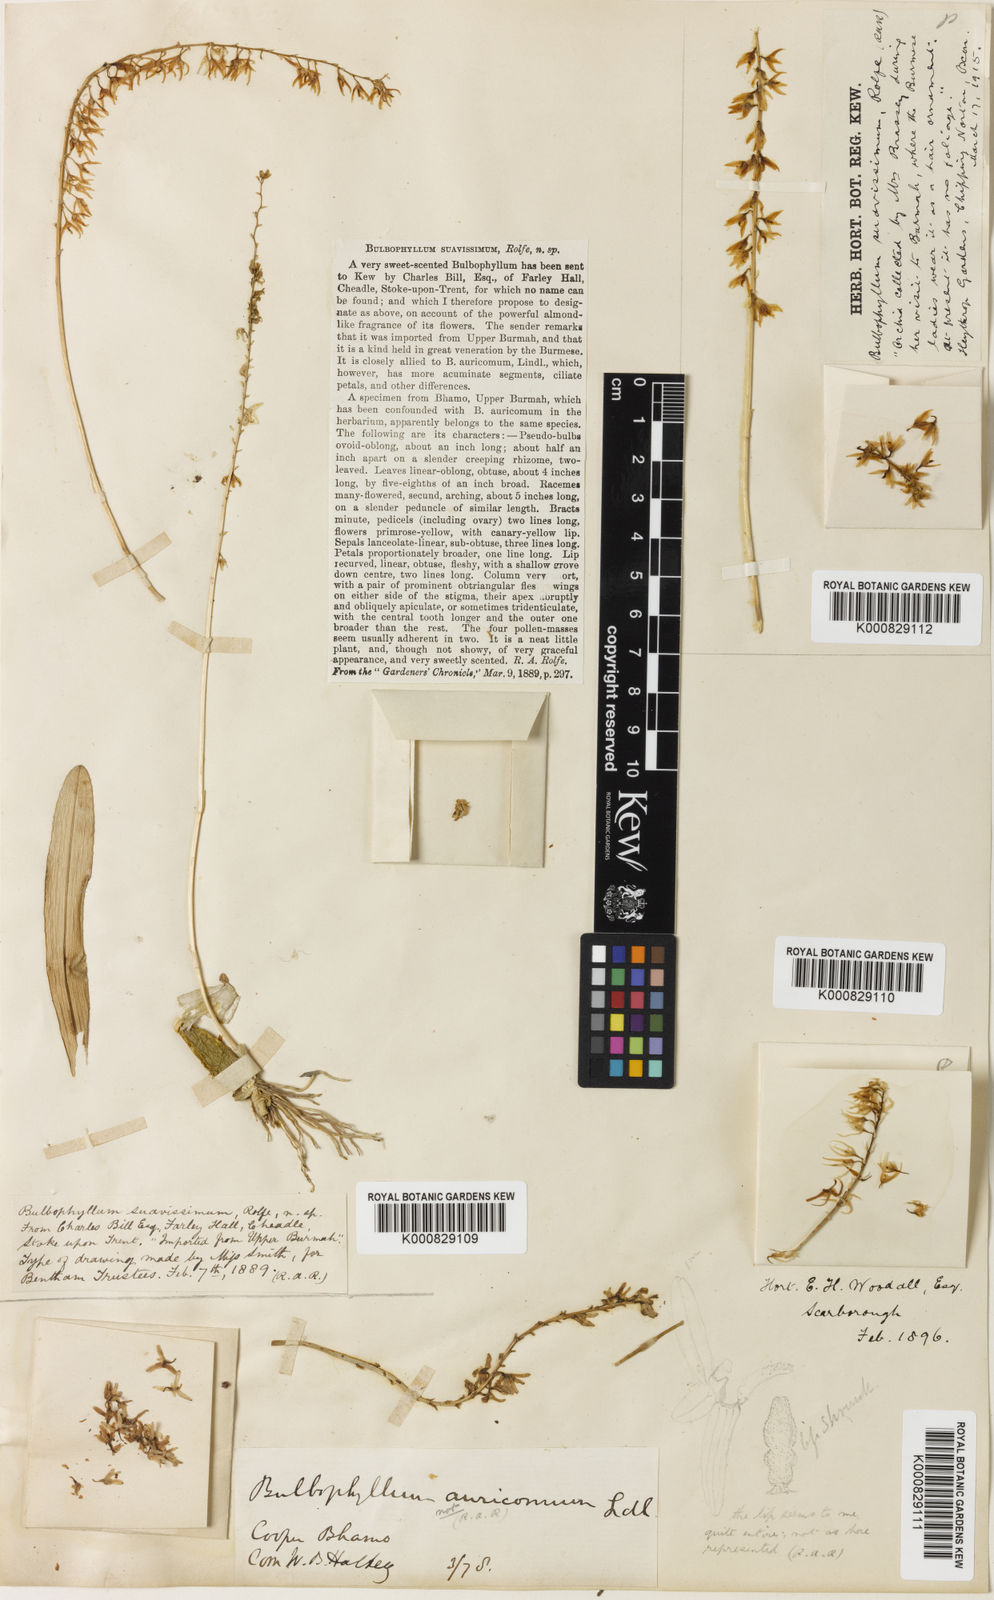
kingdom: Plantae
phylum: Tracheophyta
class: Liliopsida
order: Asparagales
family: Orchidaceae
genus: Bulbophyllum
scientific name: Bulbophyllum suavissimum
